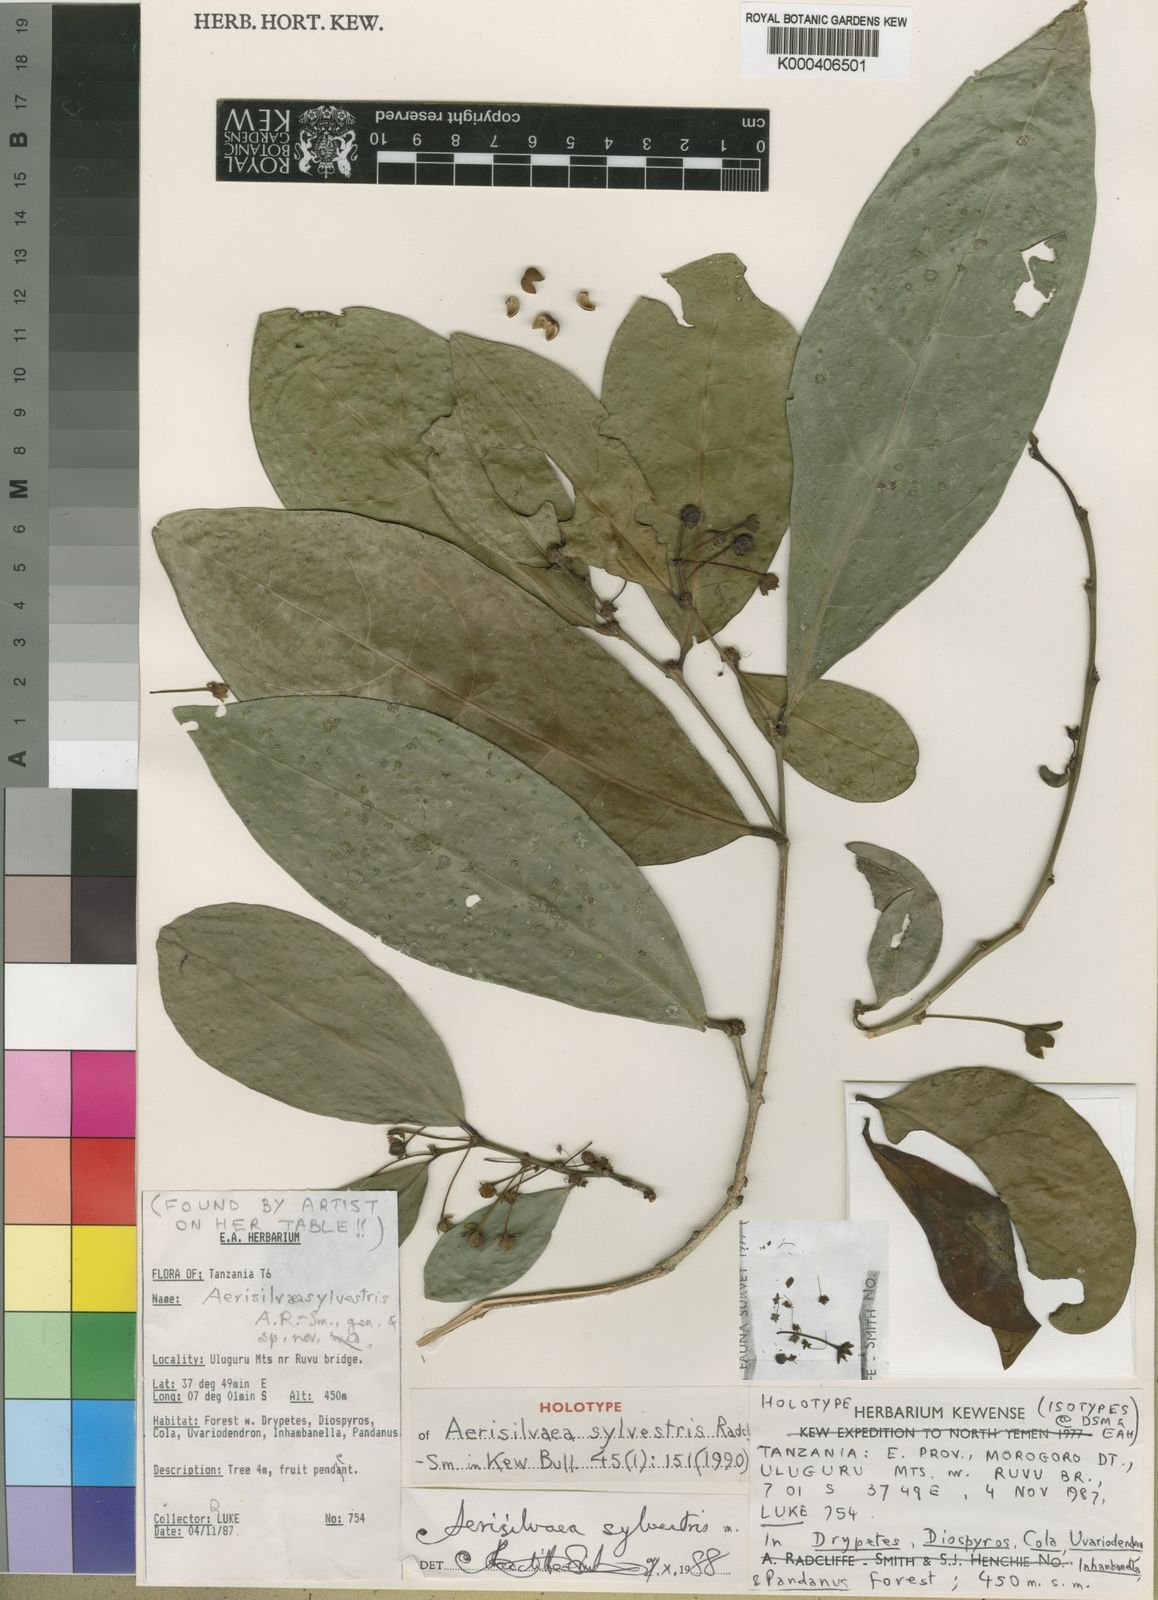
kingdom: Plantae
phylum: Tracheophyta
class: Magnoliopsida
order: Malpighiales
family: Phyllanthaceae
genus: Lingelsheimia
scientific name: Lingelsheimia sylvestris
